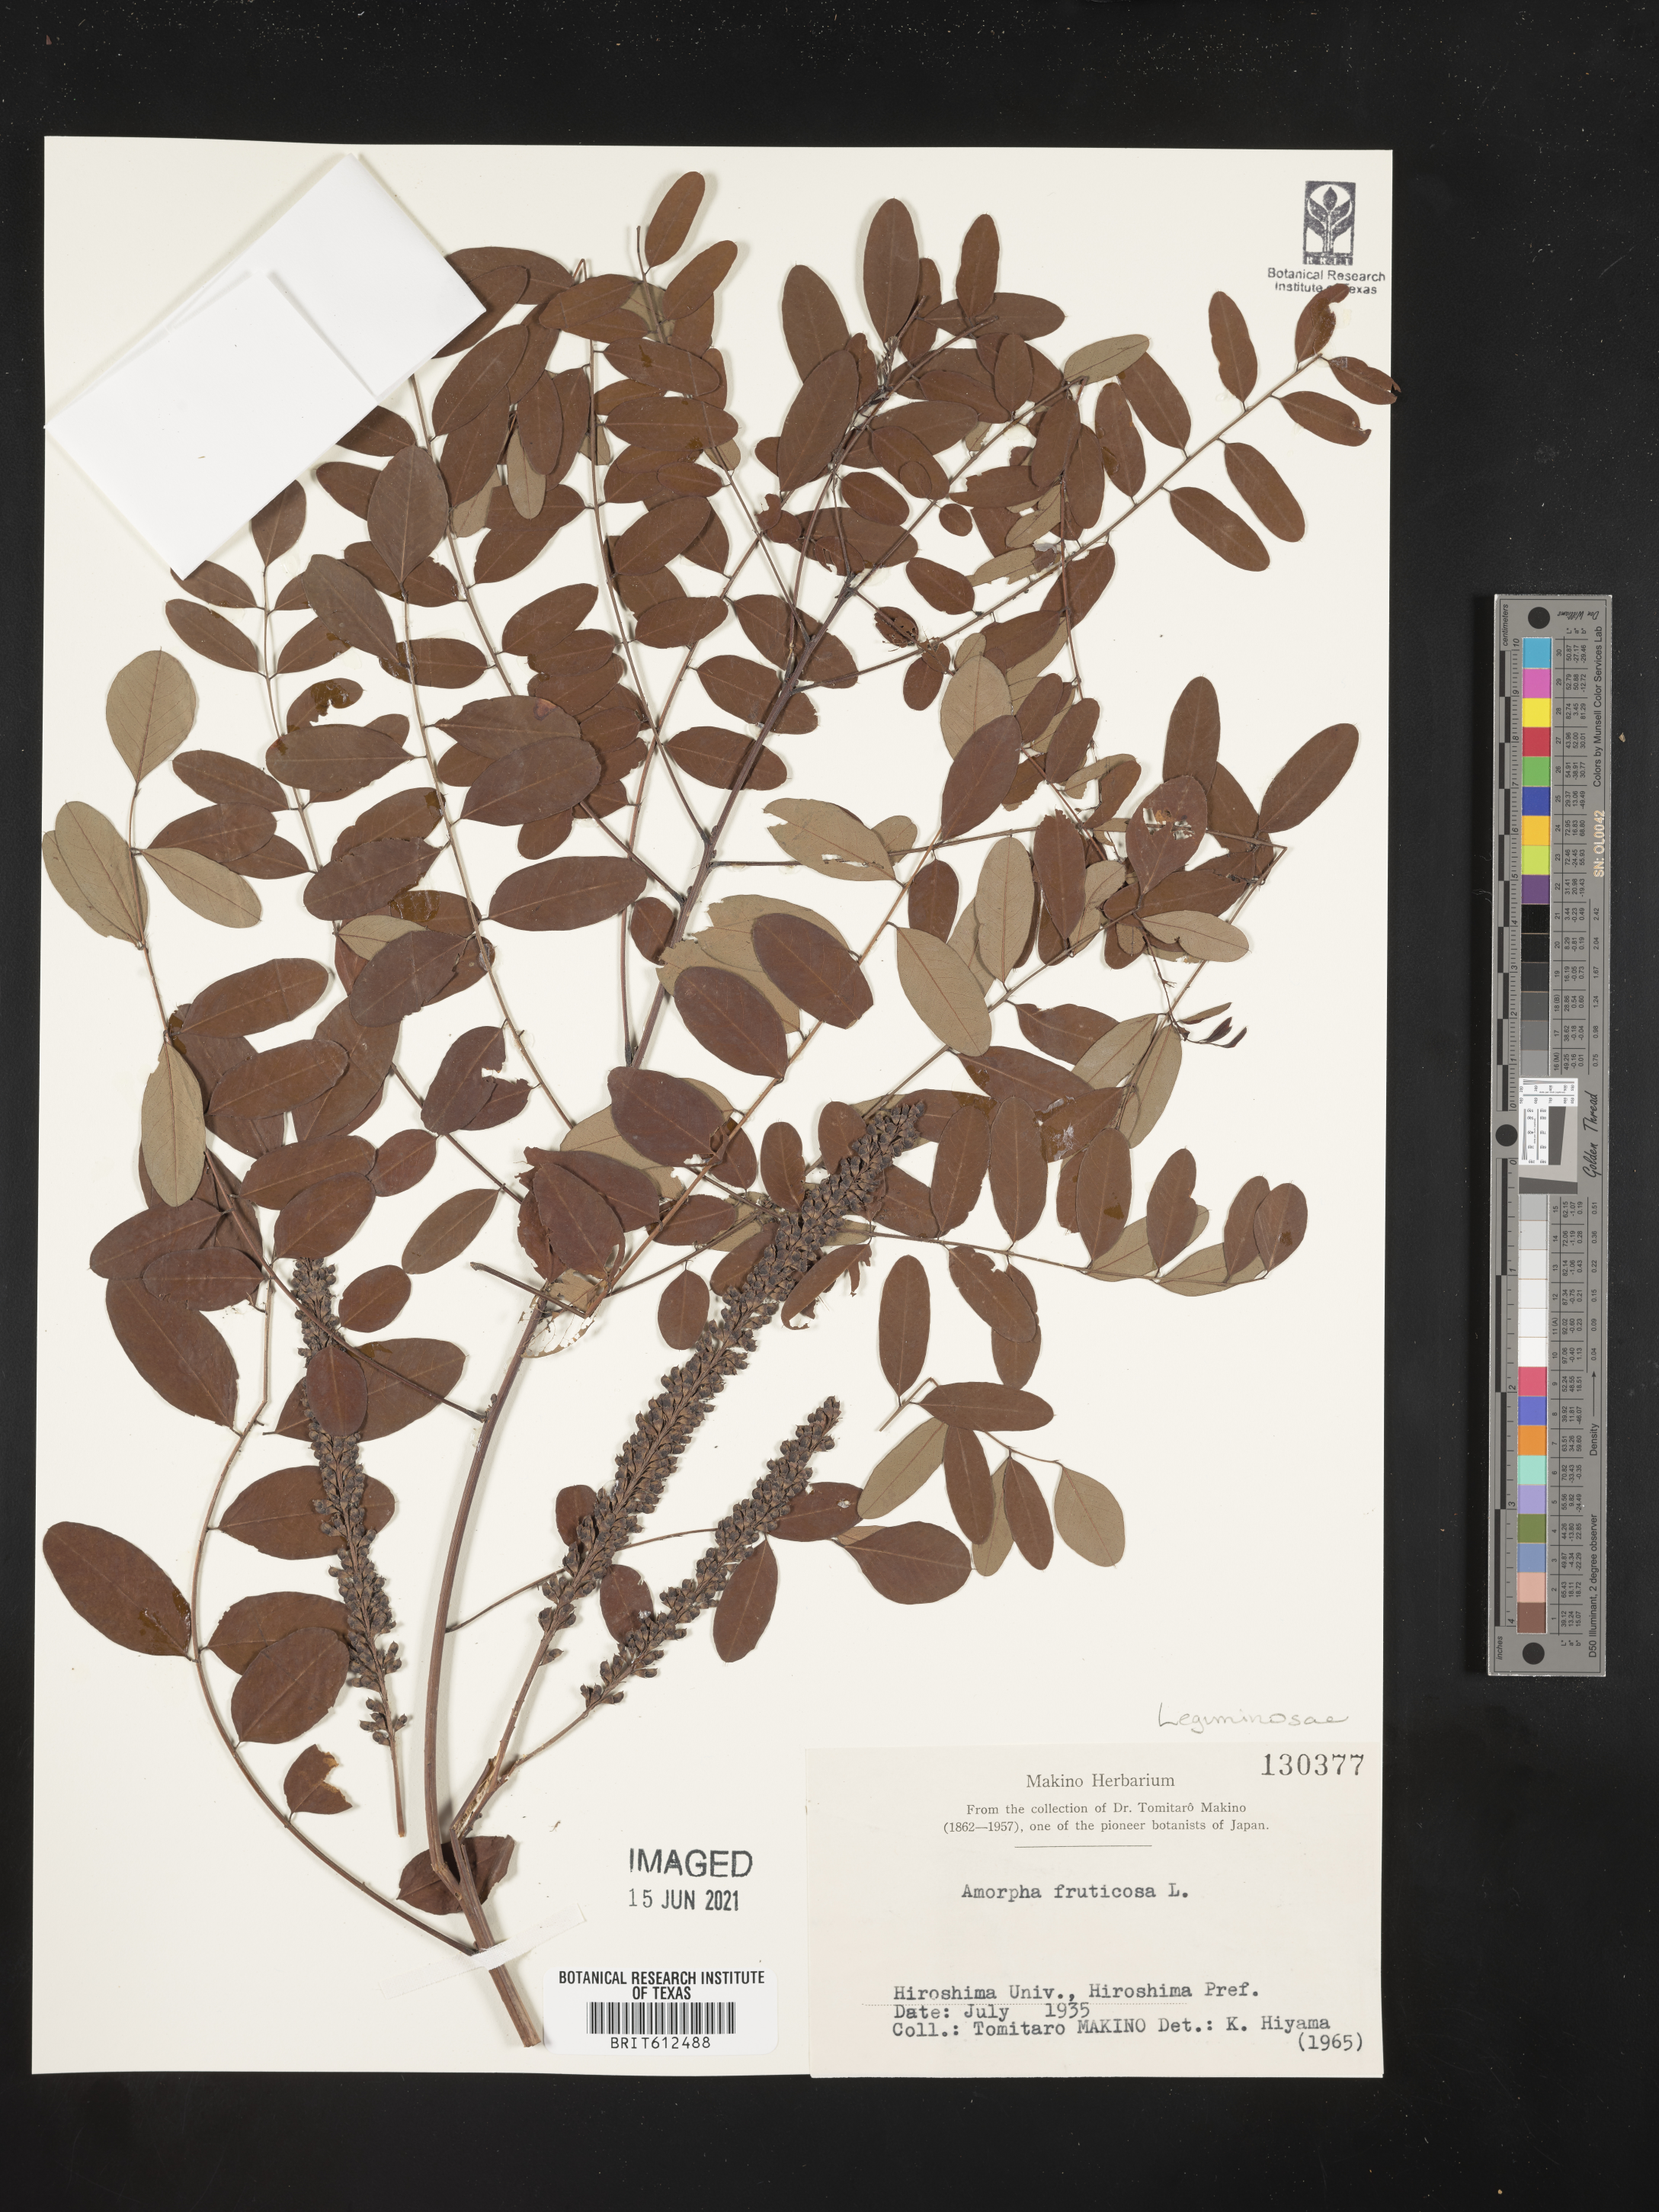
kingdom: Plantae
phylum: Tracheophyta
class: Magnoliopsida
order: Fabales
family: Fabaceae
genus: Amorpha
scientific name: Amorpha fruticosa
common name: False indigo
